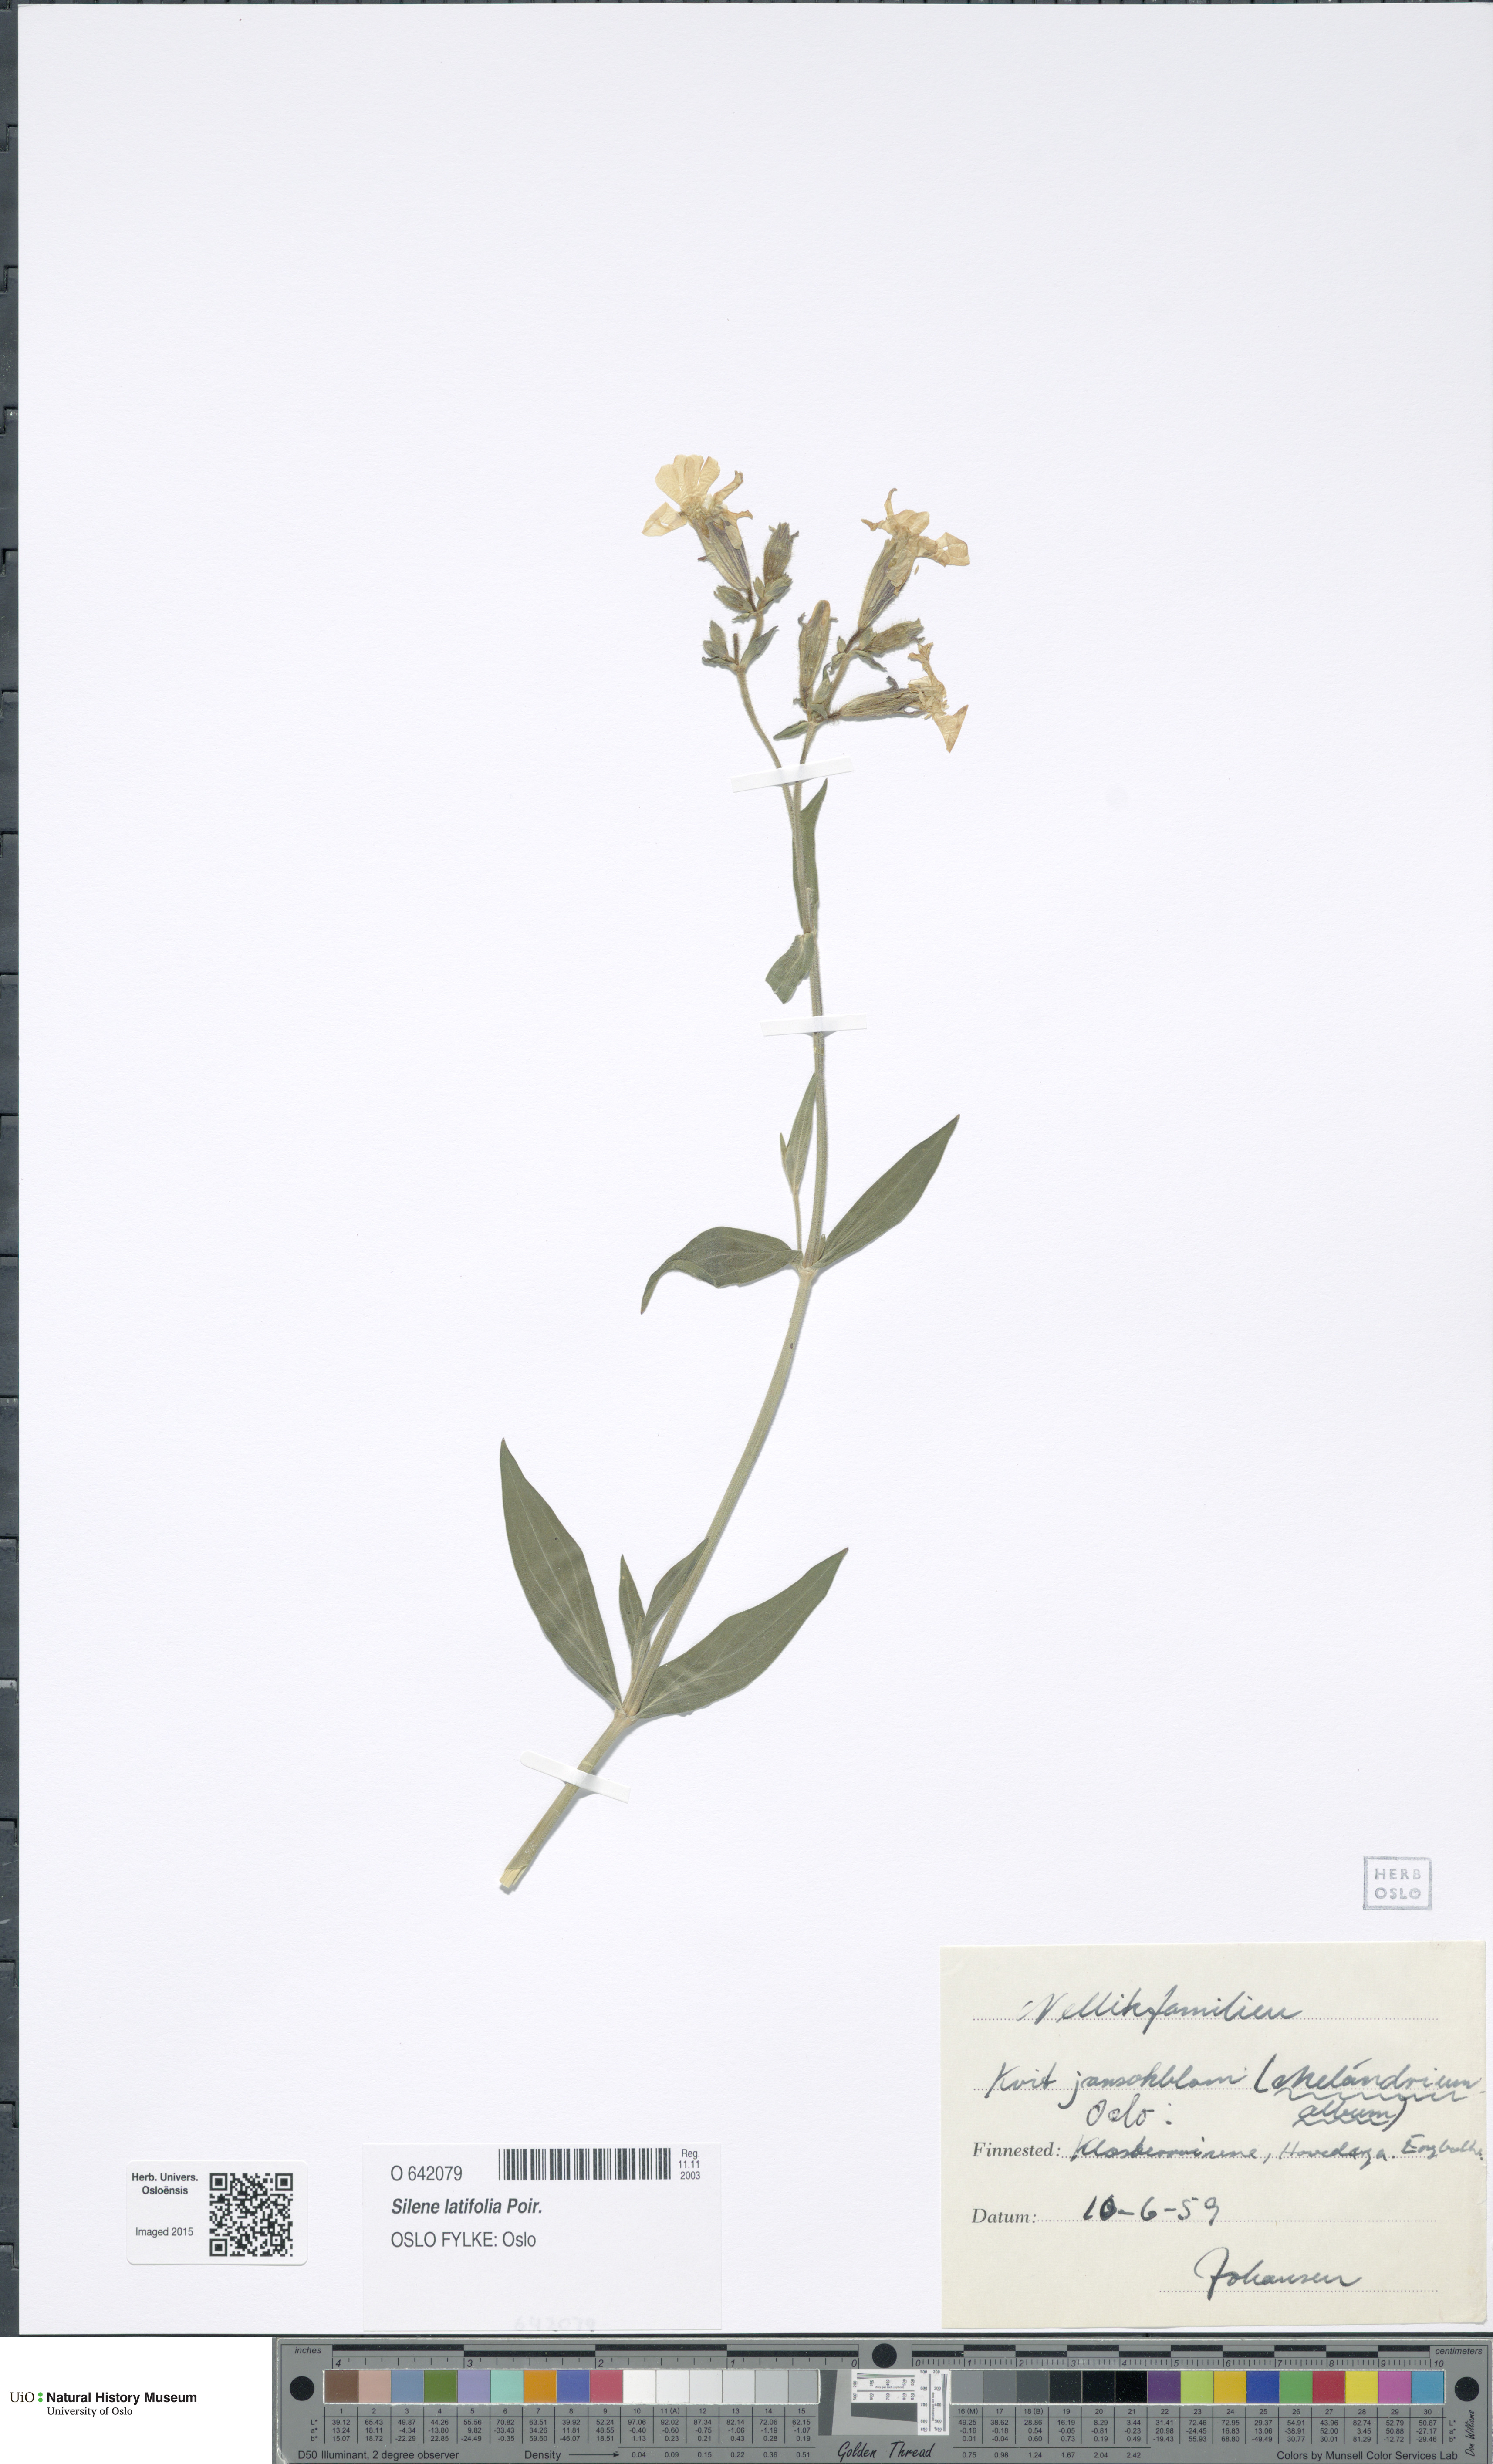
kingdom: Plantae
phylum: Tracheophyta
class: Magnoliopsida
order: Caryophyllales
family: Caryophyllaceae
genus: Silene
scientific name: Silene vulgaris
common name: Bladder campion
